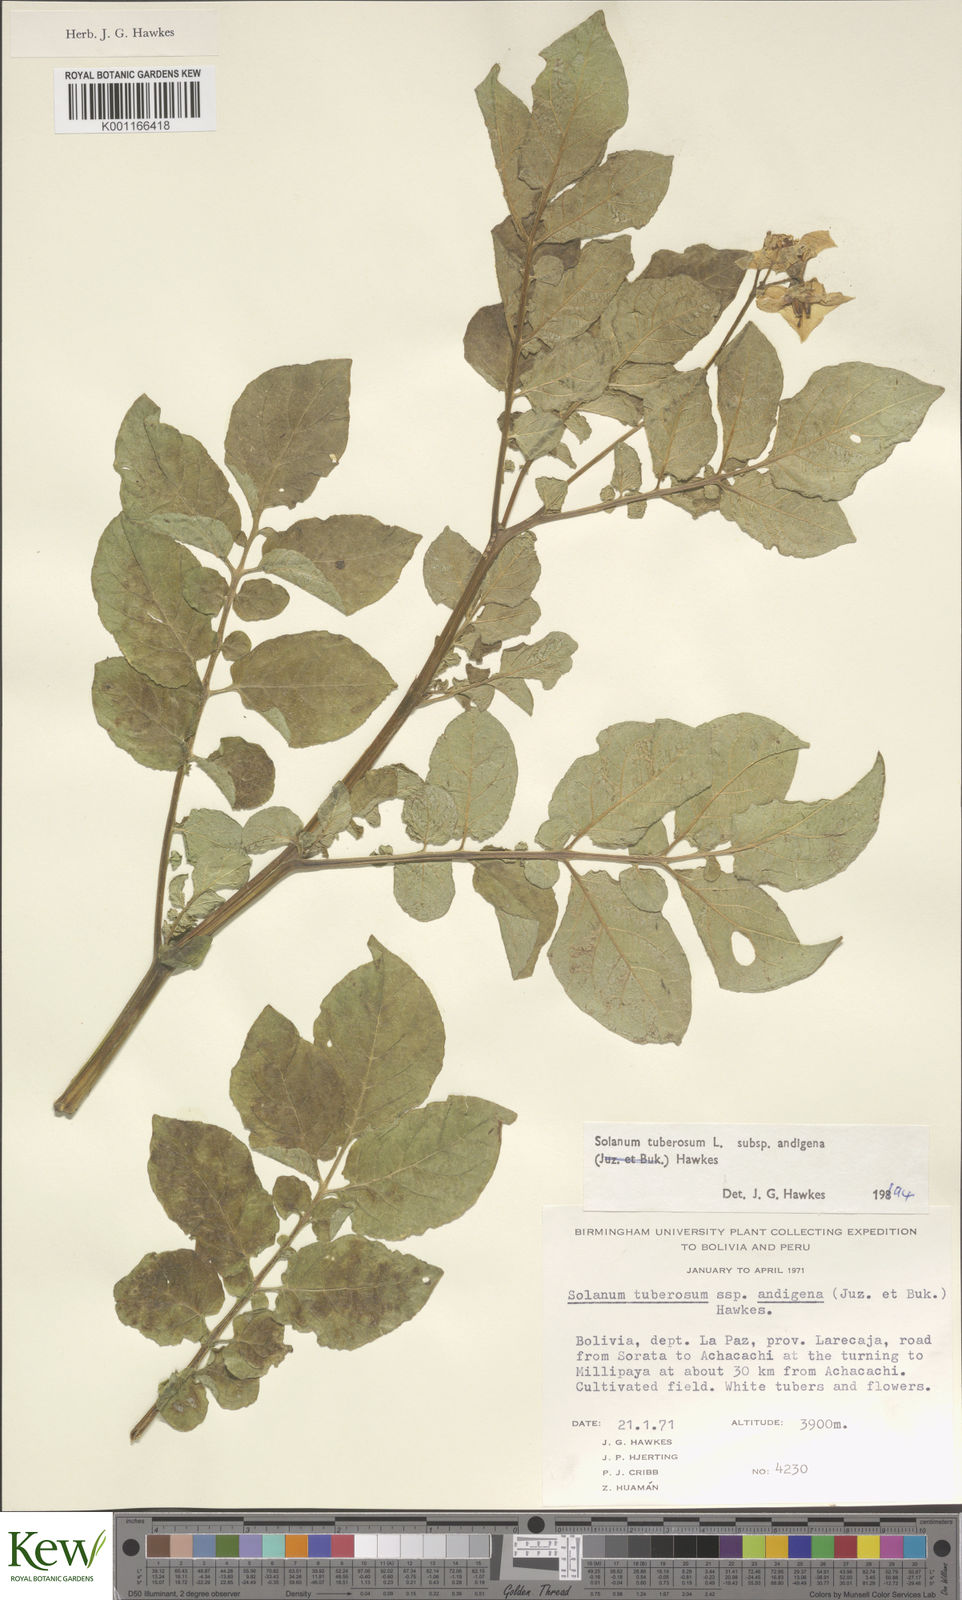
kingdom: Plantae
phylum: Tracheophyta
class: Magnoliopsida
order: Solanales
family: Solanaceae
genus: Solanum
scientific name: Solanum tuberosum
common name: Potato
